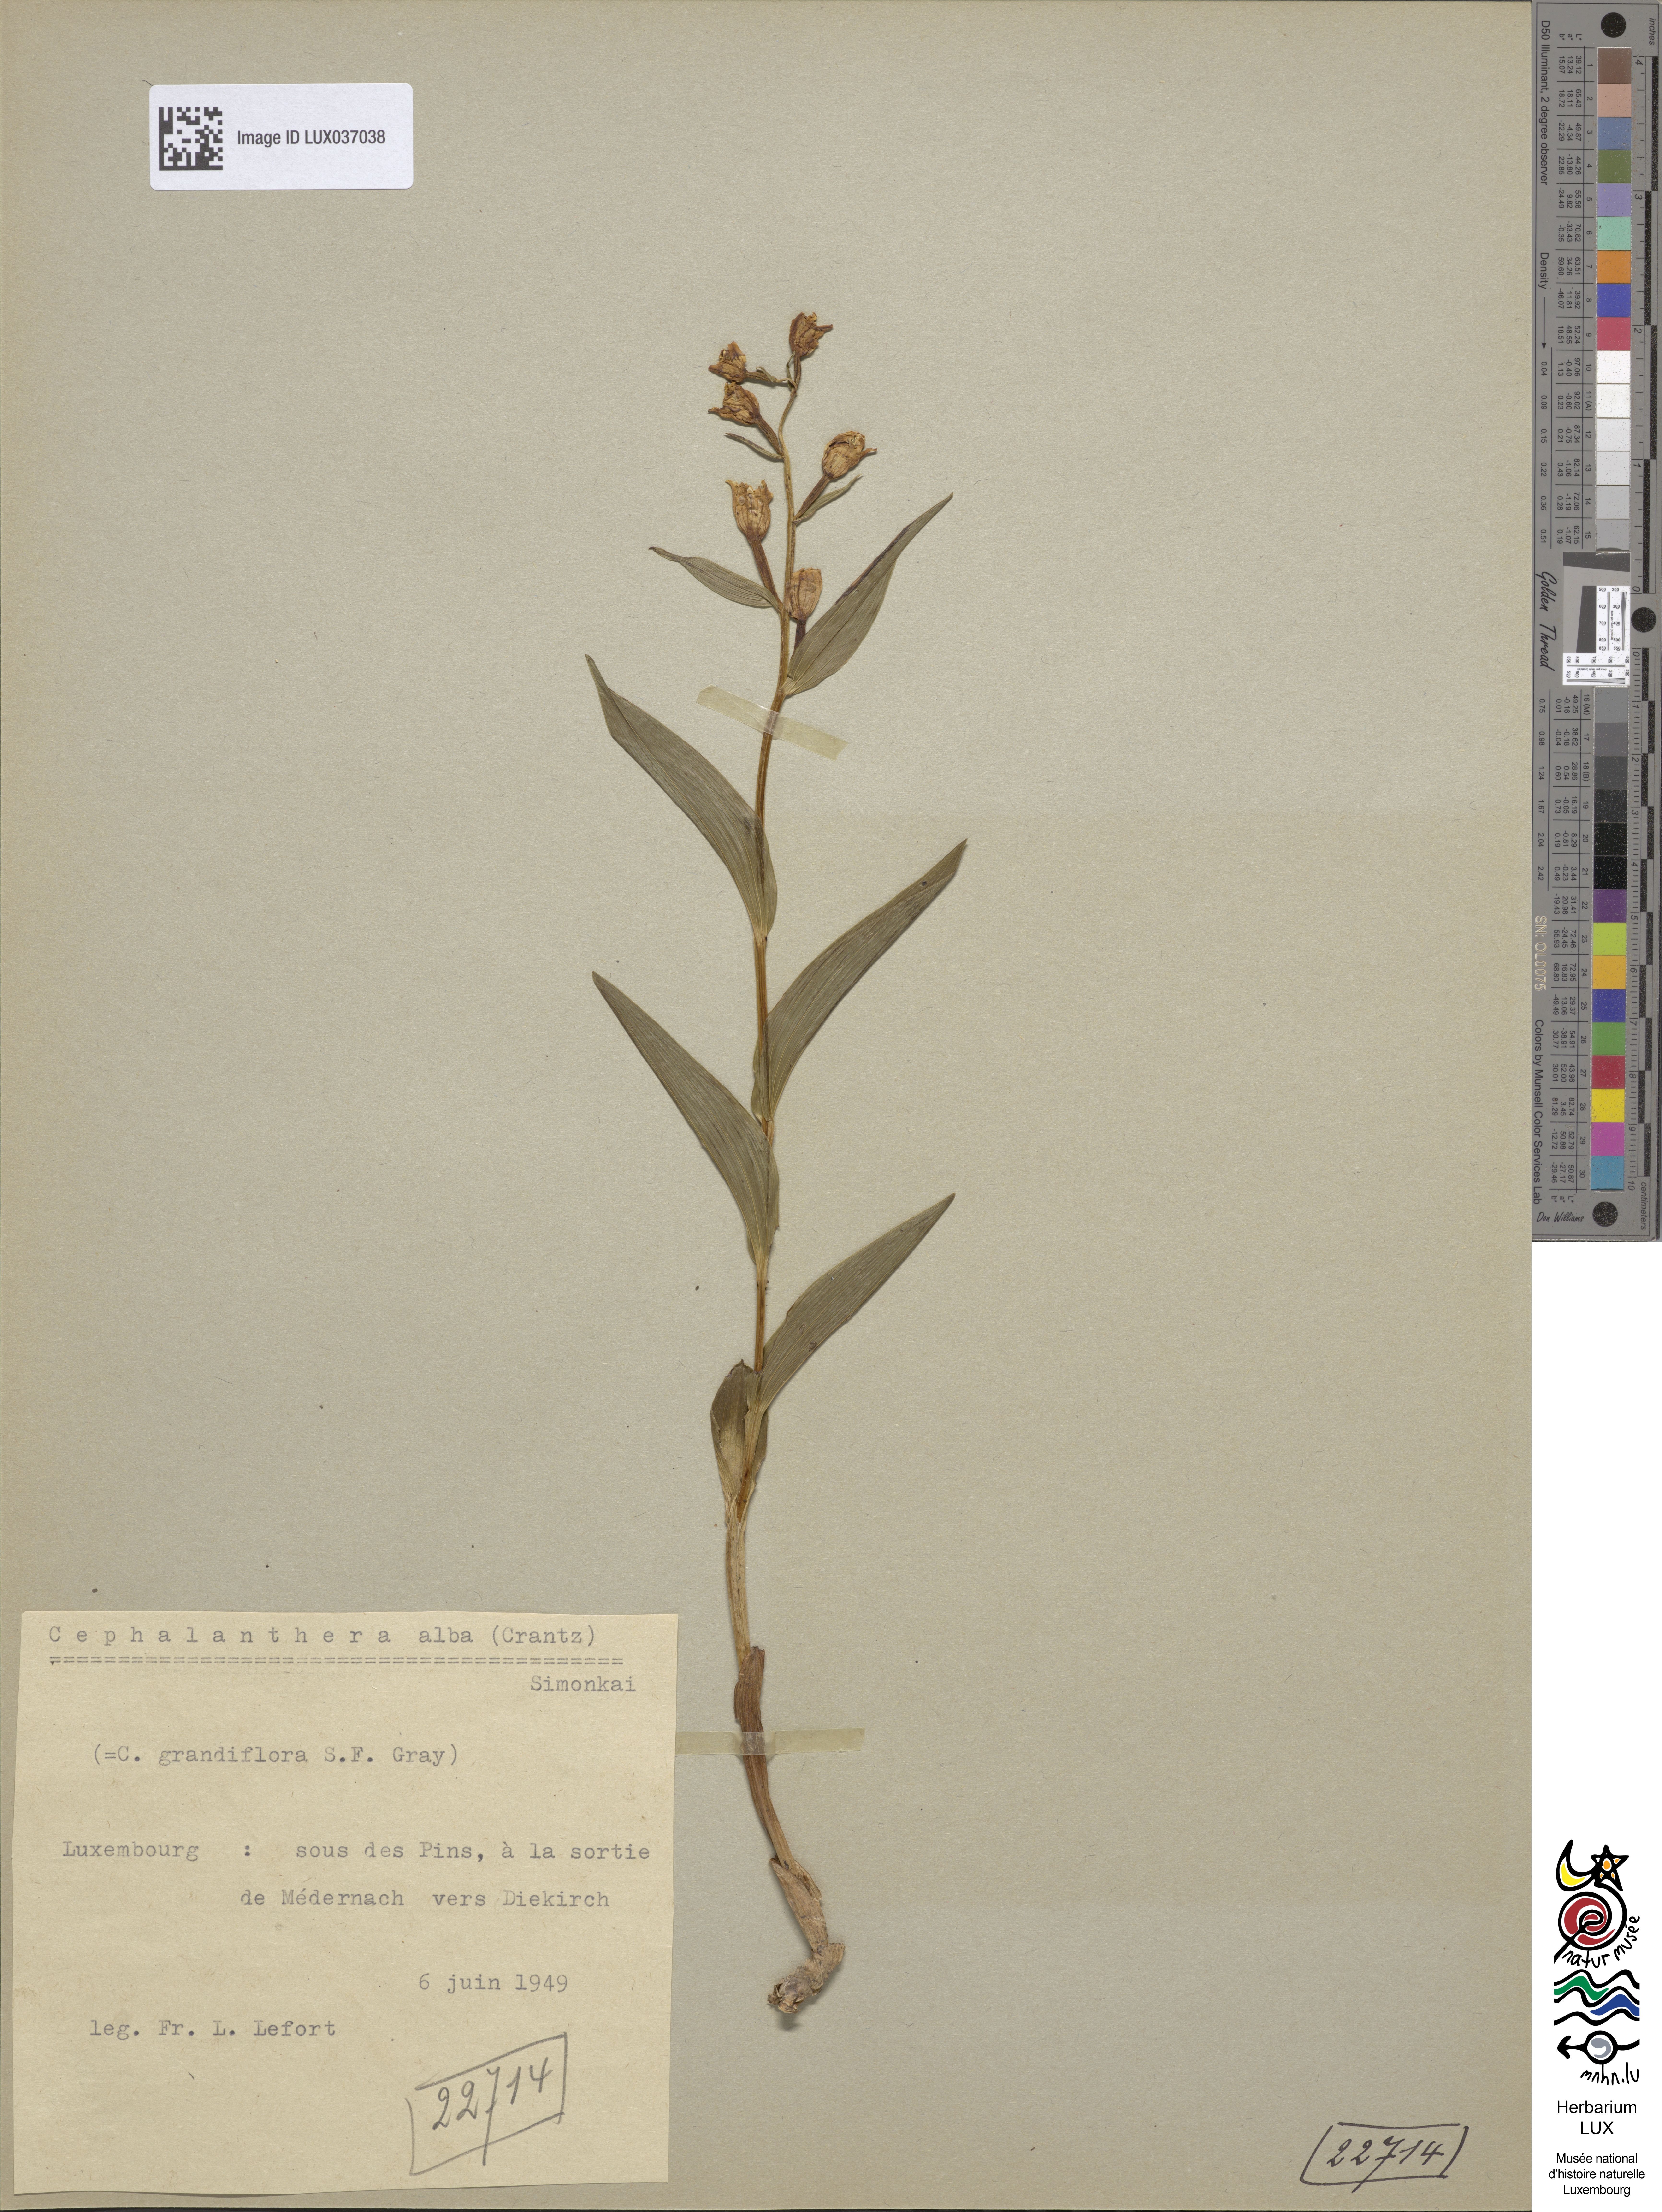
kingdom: Plantae
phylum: Tracheophyta
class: Liliopsida
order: Asparagales
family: Orchidaceae
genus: Cephalanthera
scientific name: Cephalanthera damasonium
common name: White helleborine
